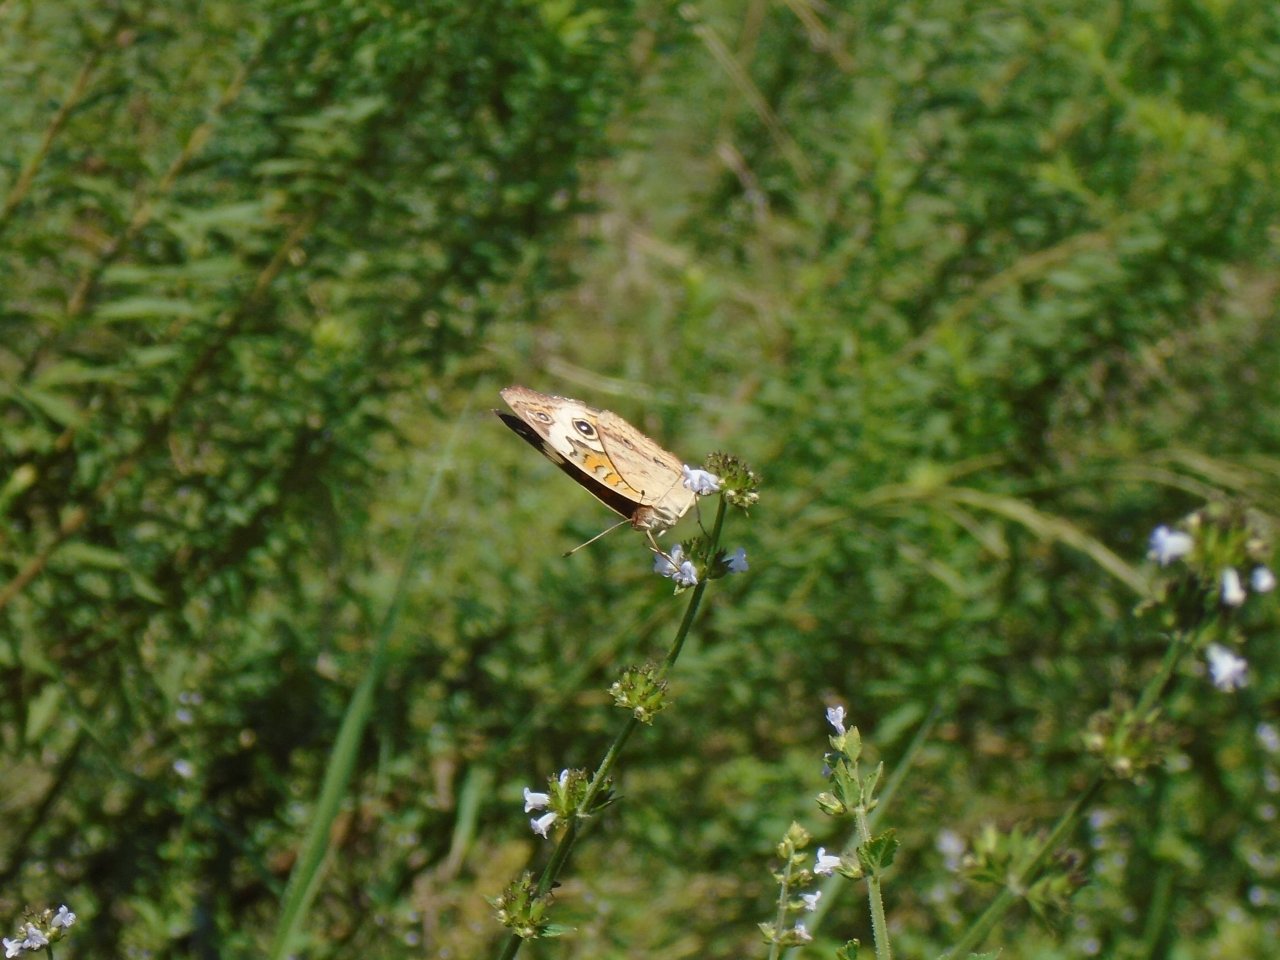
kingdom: Animalia
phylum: Arthropoda
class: Insecta
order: Lepidoptera
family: Nymphalidae
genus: Junonia
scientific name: Junonia coenia
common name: Common Buckeye
